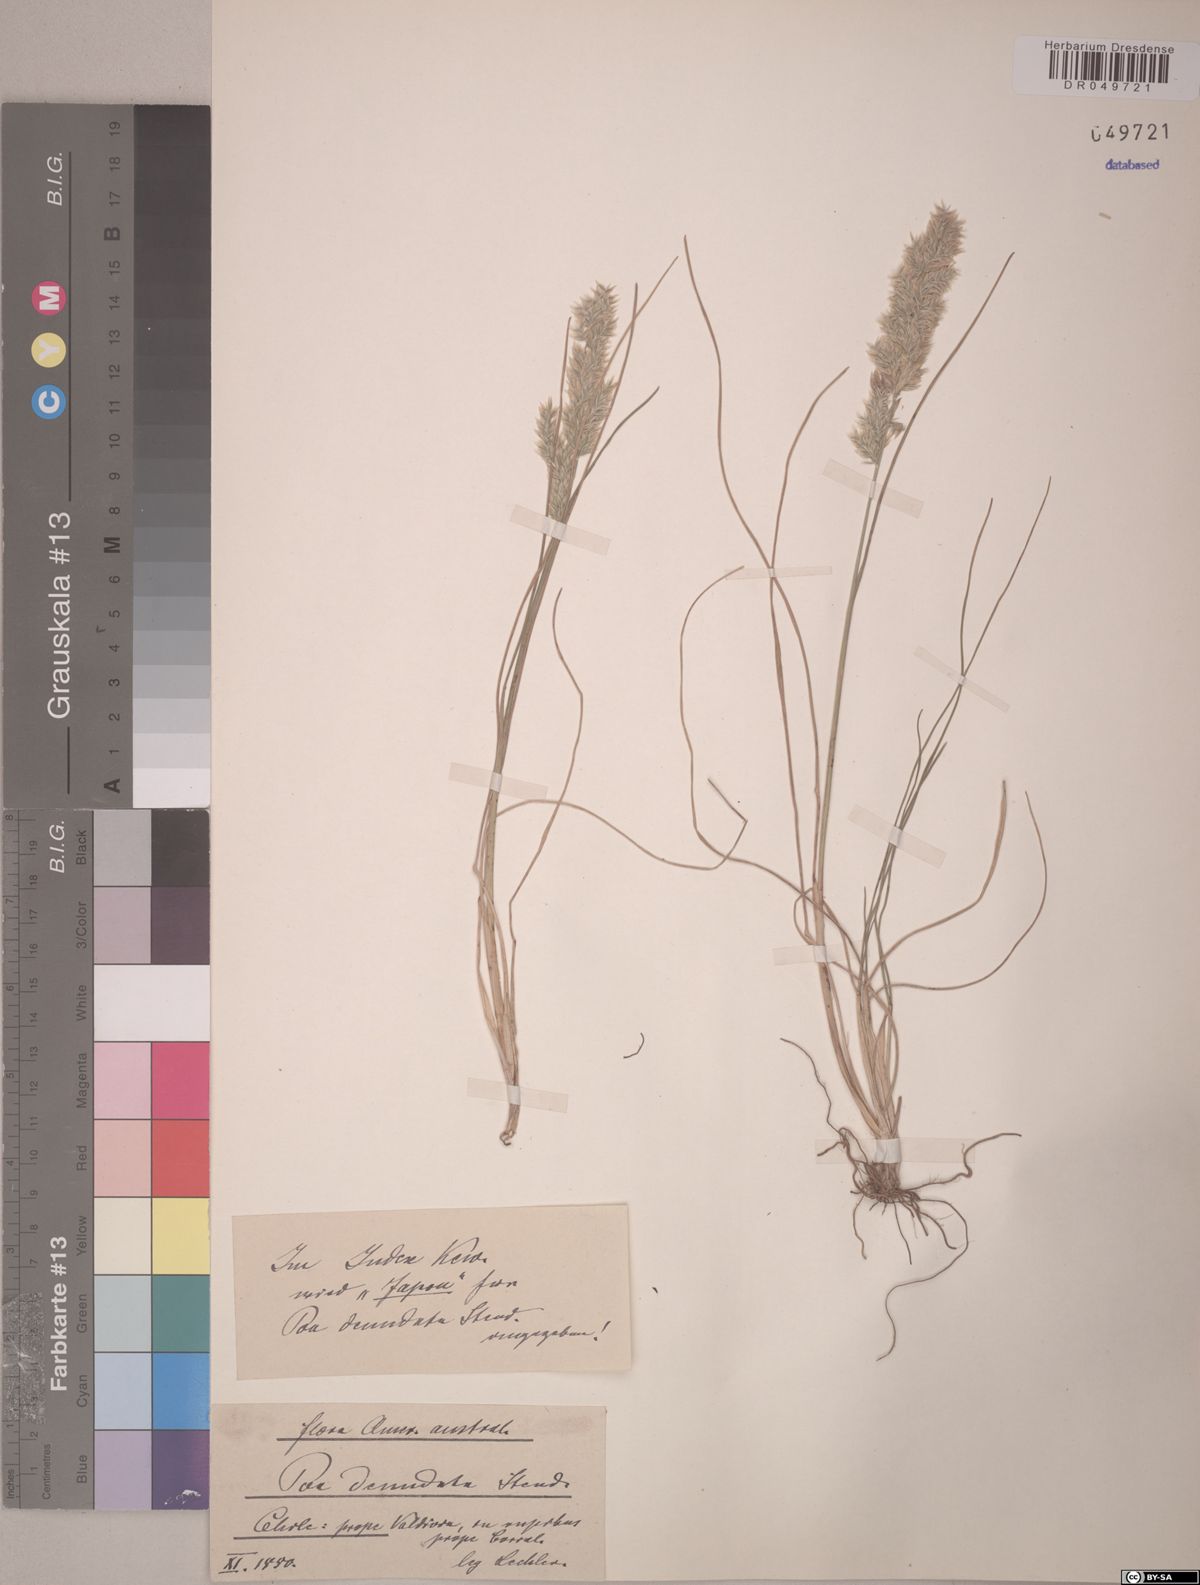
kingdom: Plantae
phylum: Tracheophyta
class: Liliopsida
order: Poales
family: Poaceae
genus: Poa
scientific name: Poa denudata
